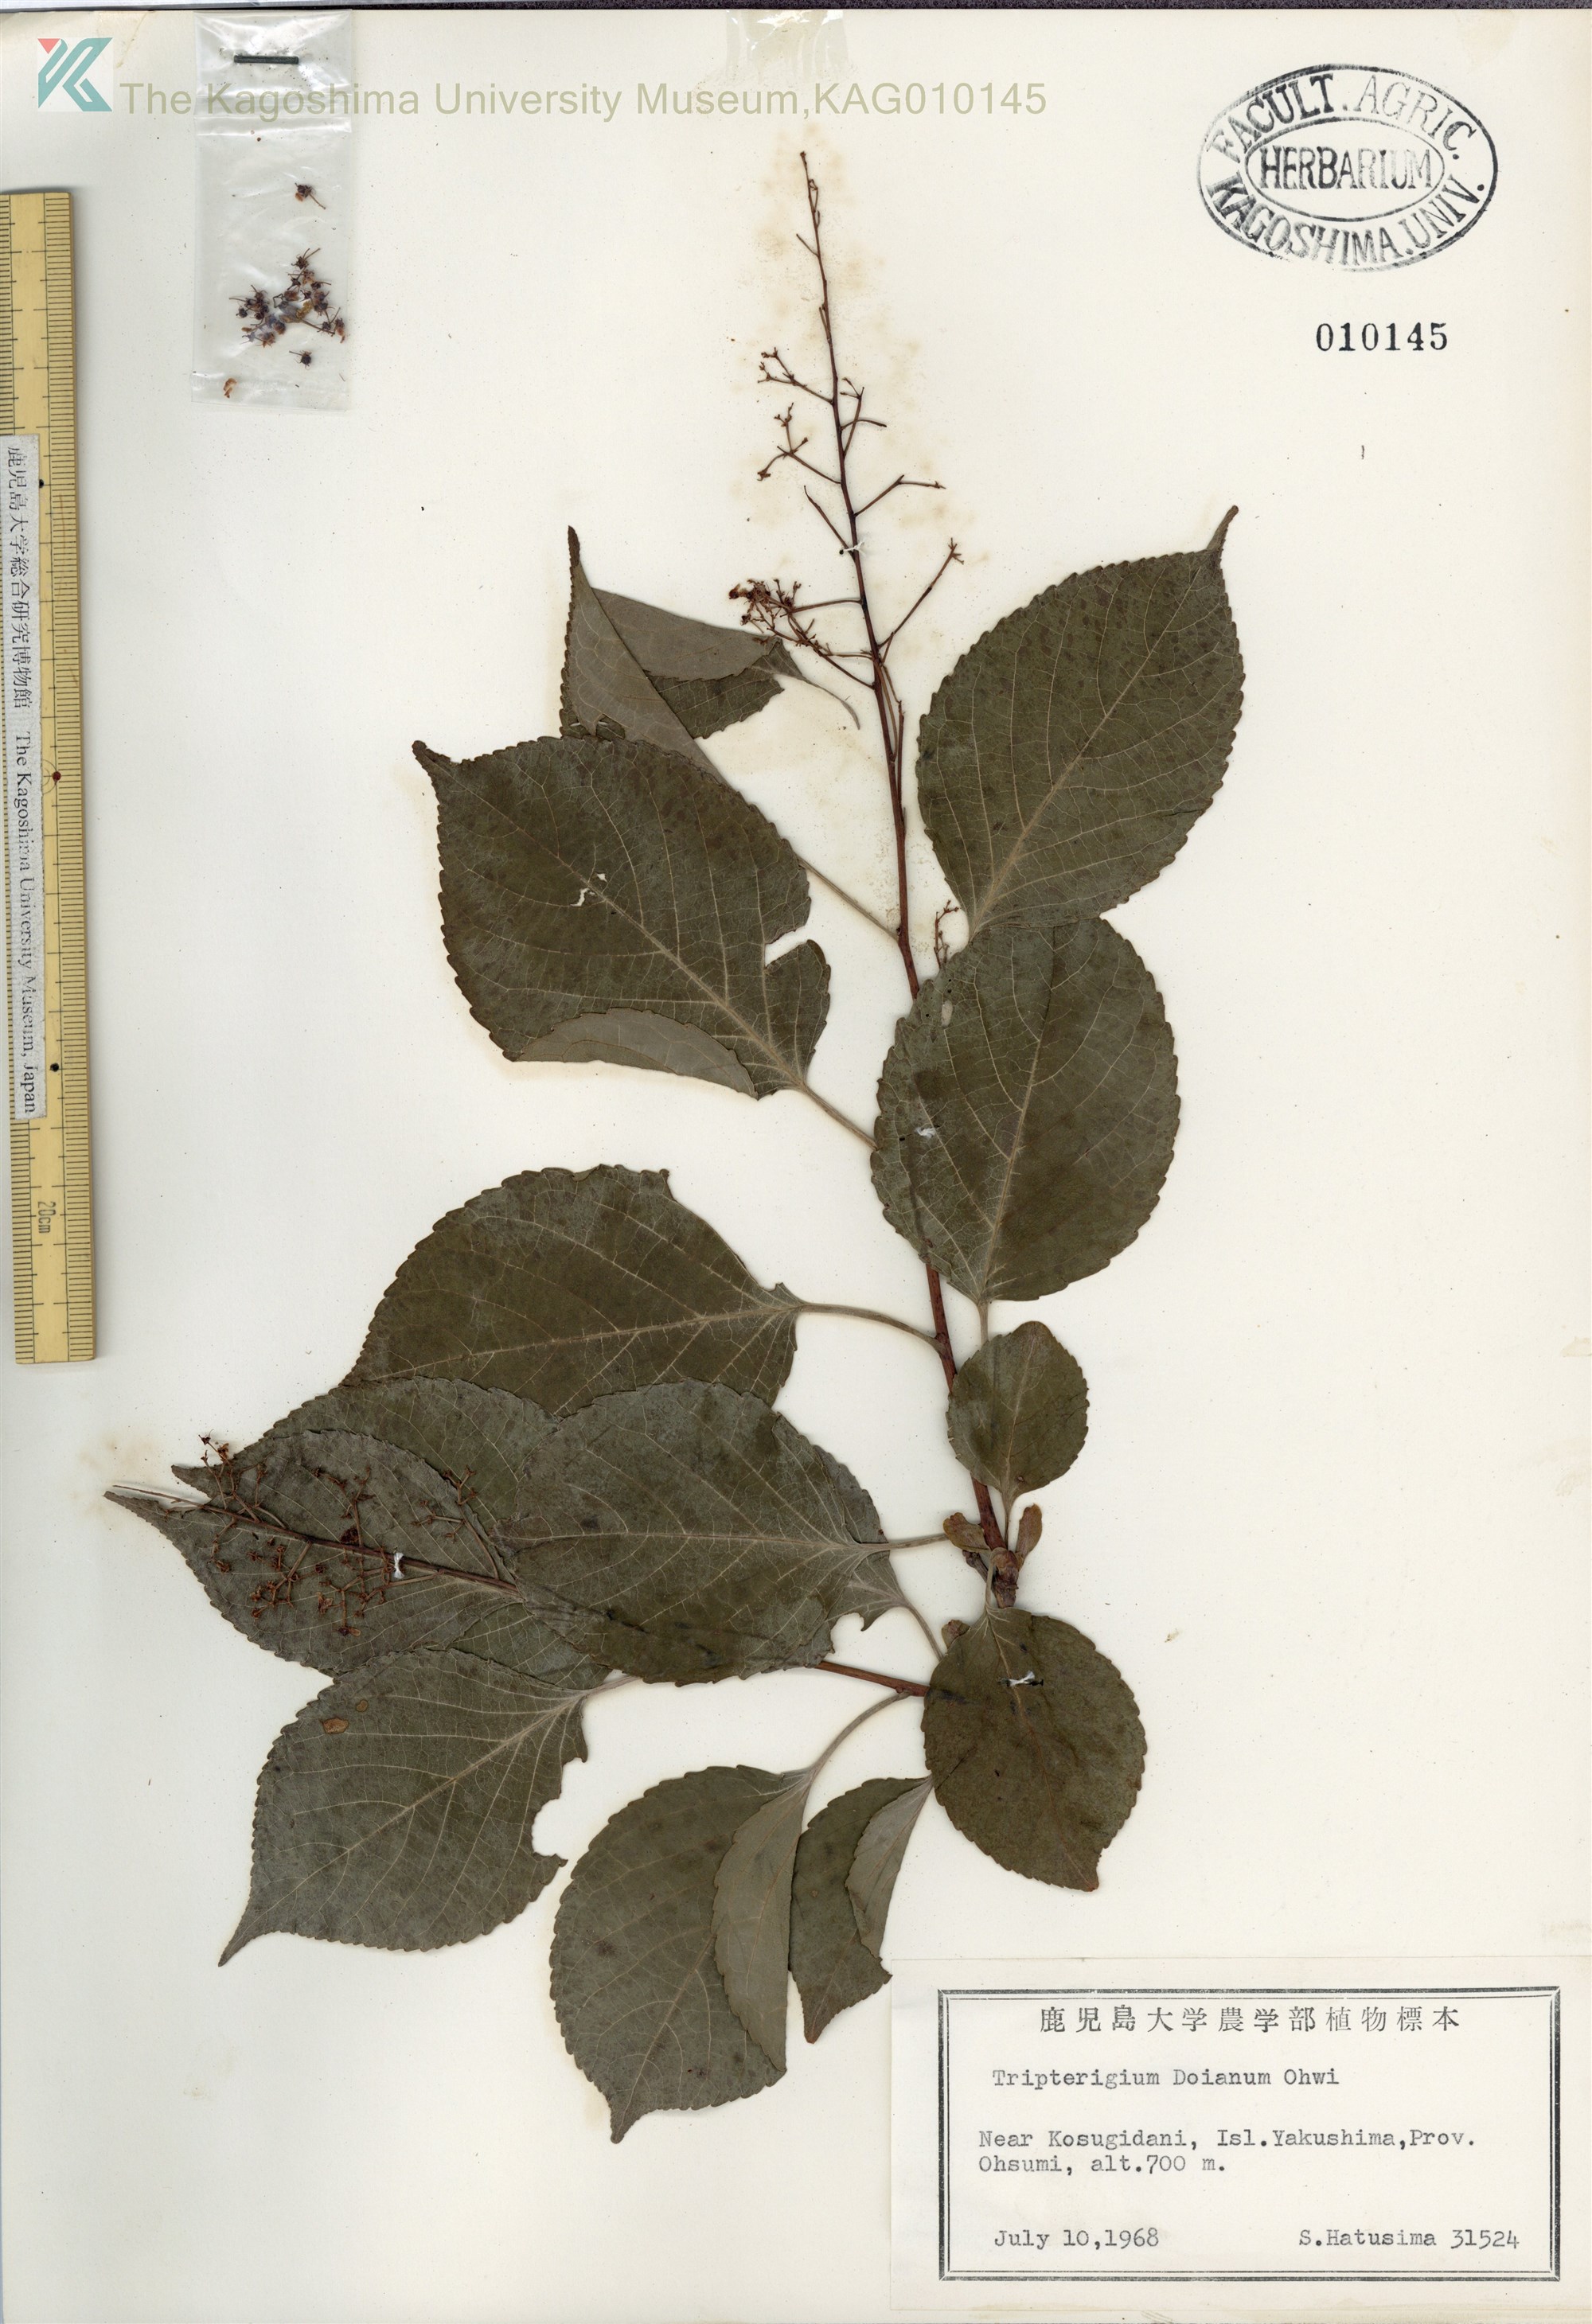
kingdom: Plantae
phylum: Tracheophyta
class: Magnoliopsida
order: Celastrales
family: Celastraceae
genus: Tripterygium
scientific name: Tripterygium doianum
